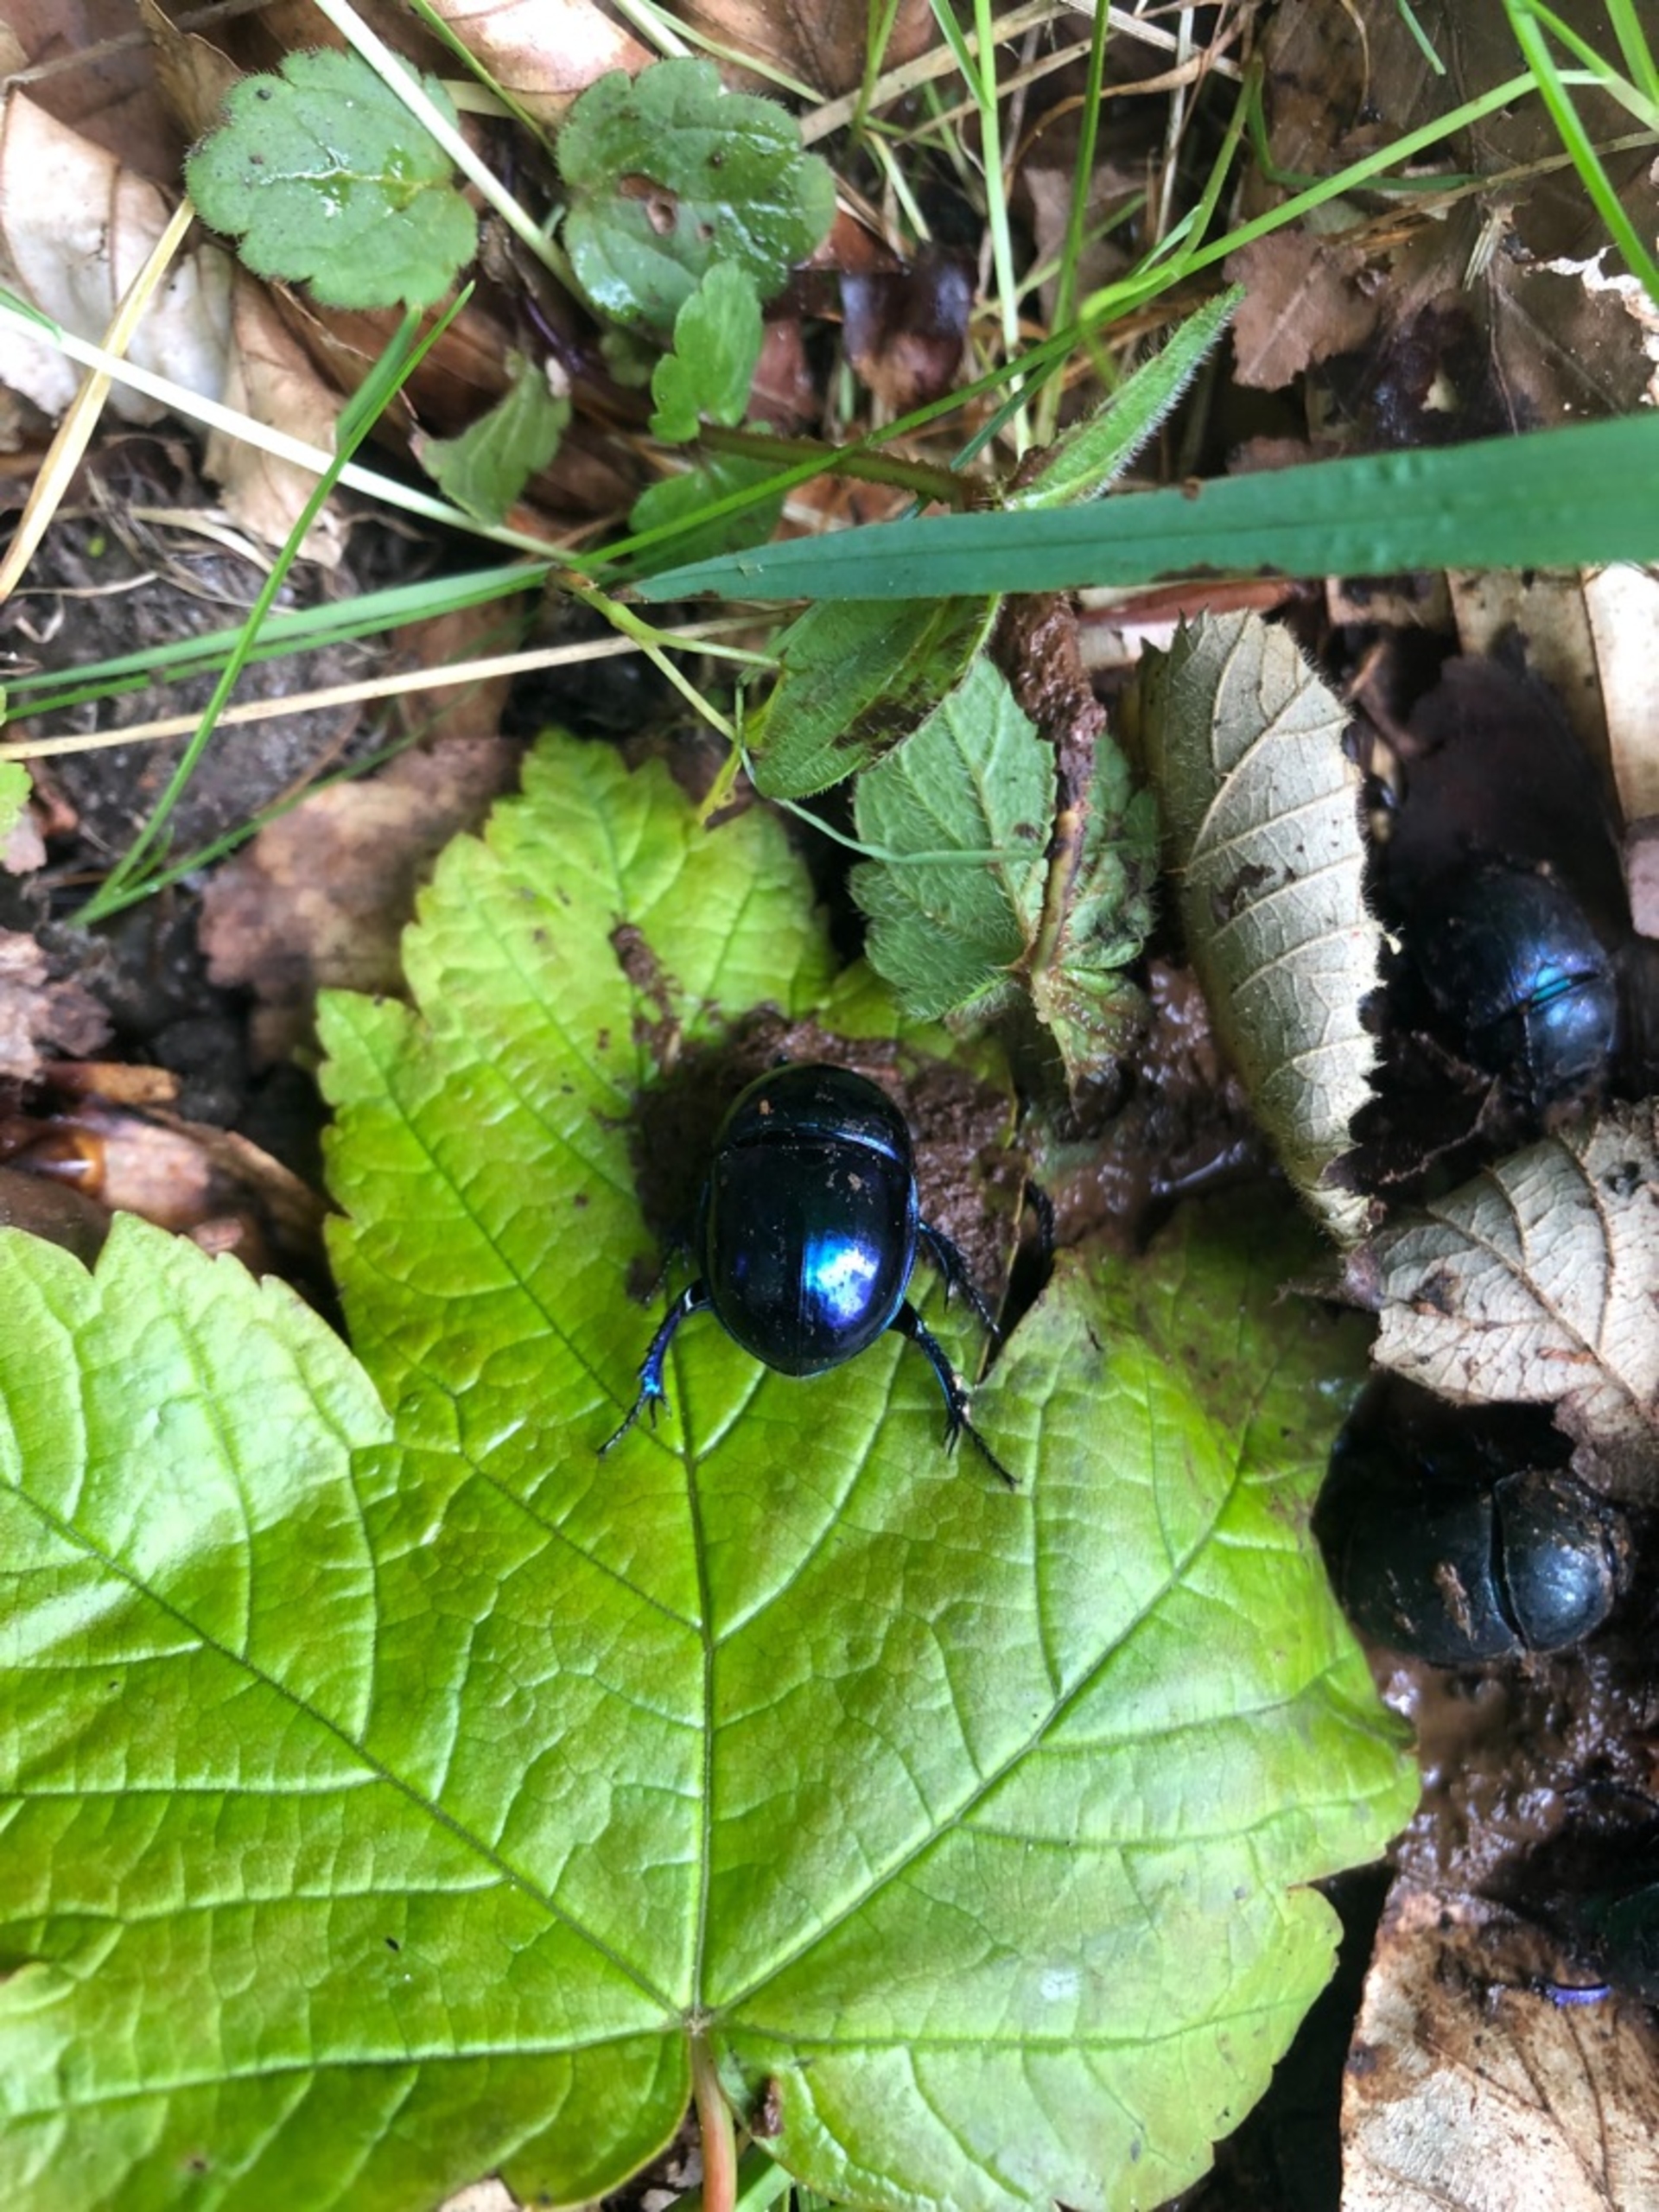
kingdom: Animalia
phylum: Arthropoda
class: Insecta
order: Coleoptera
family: Geotrupidae
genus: Anoplotrupes
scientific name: Anoplotrupes stercorosus
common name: Skovskarnbasse
